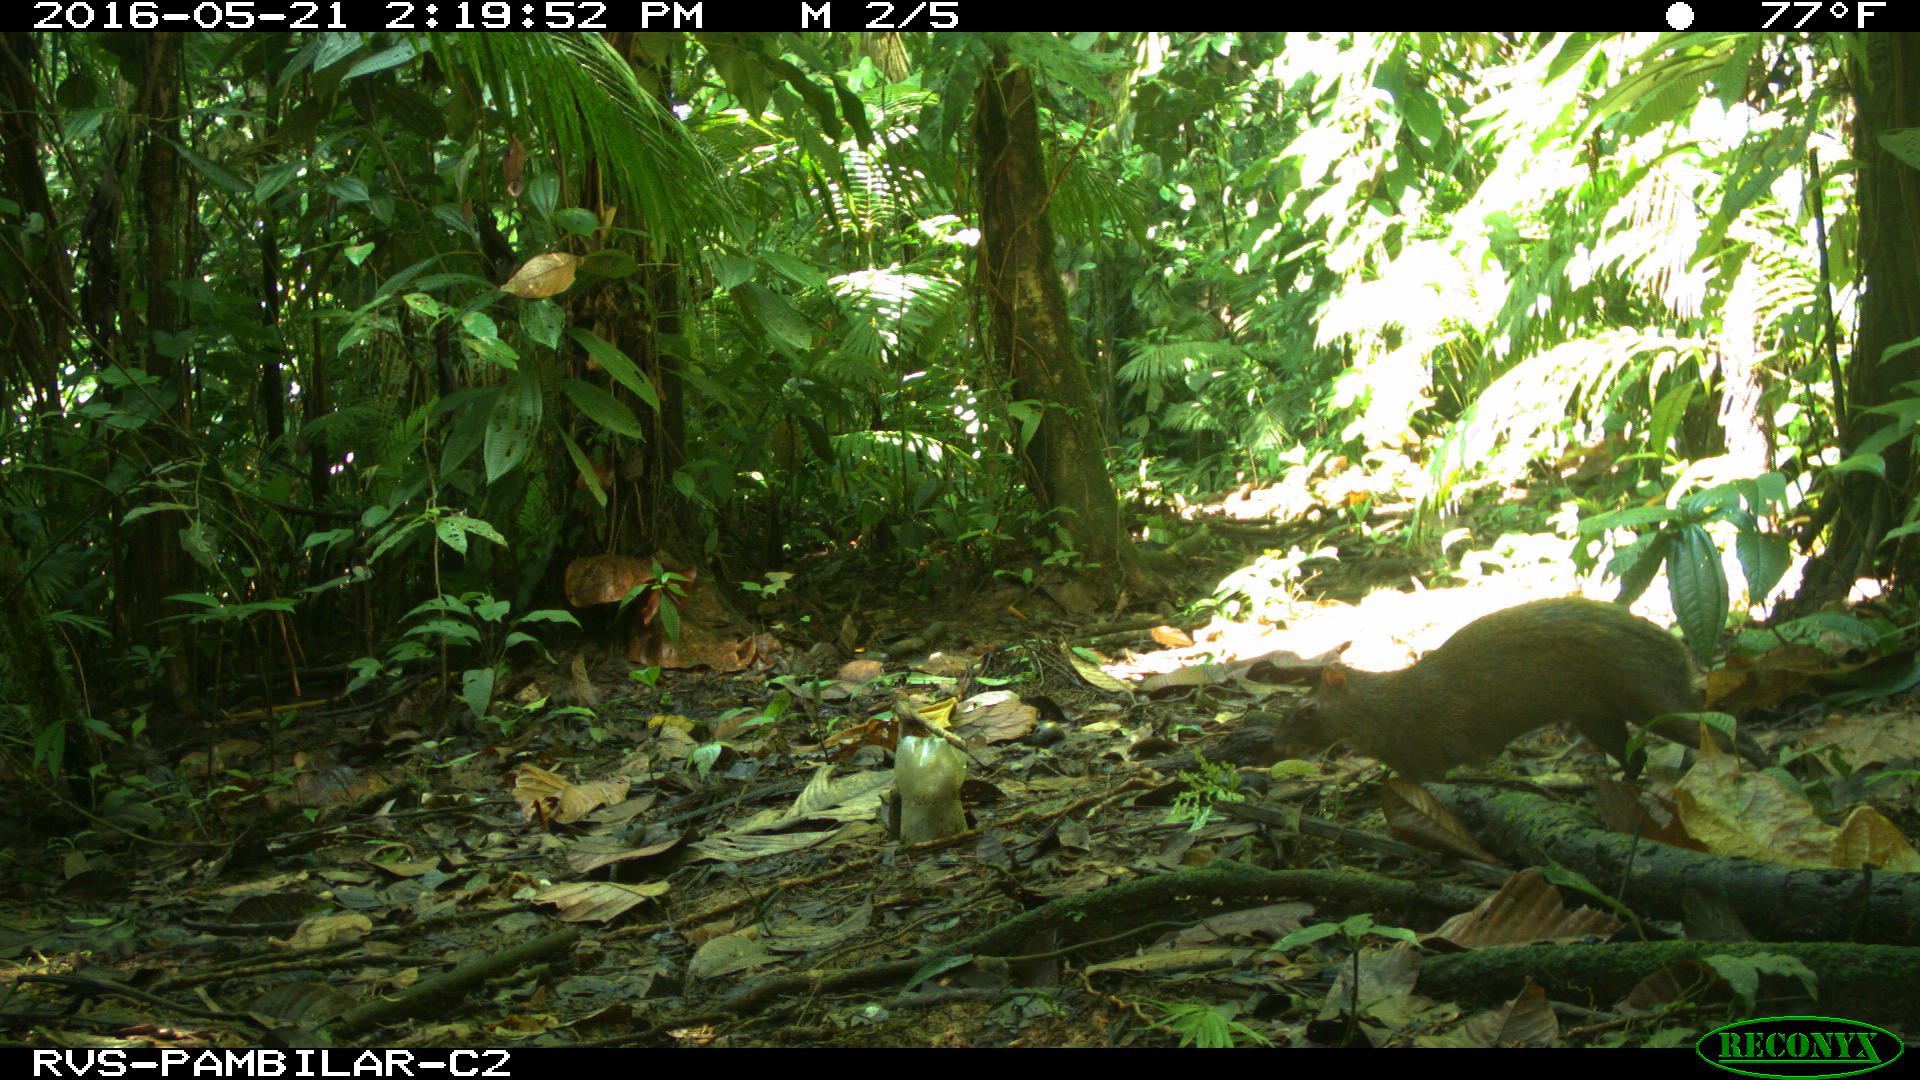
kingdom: Animalia
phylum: Chordata
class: Mammalia
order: Rodentia
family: Dasyproctidae
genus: Dasyprocta
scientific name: Dasyprocta punctata
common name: Central american agouti
